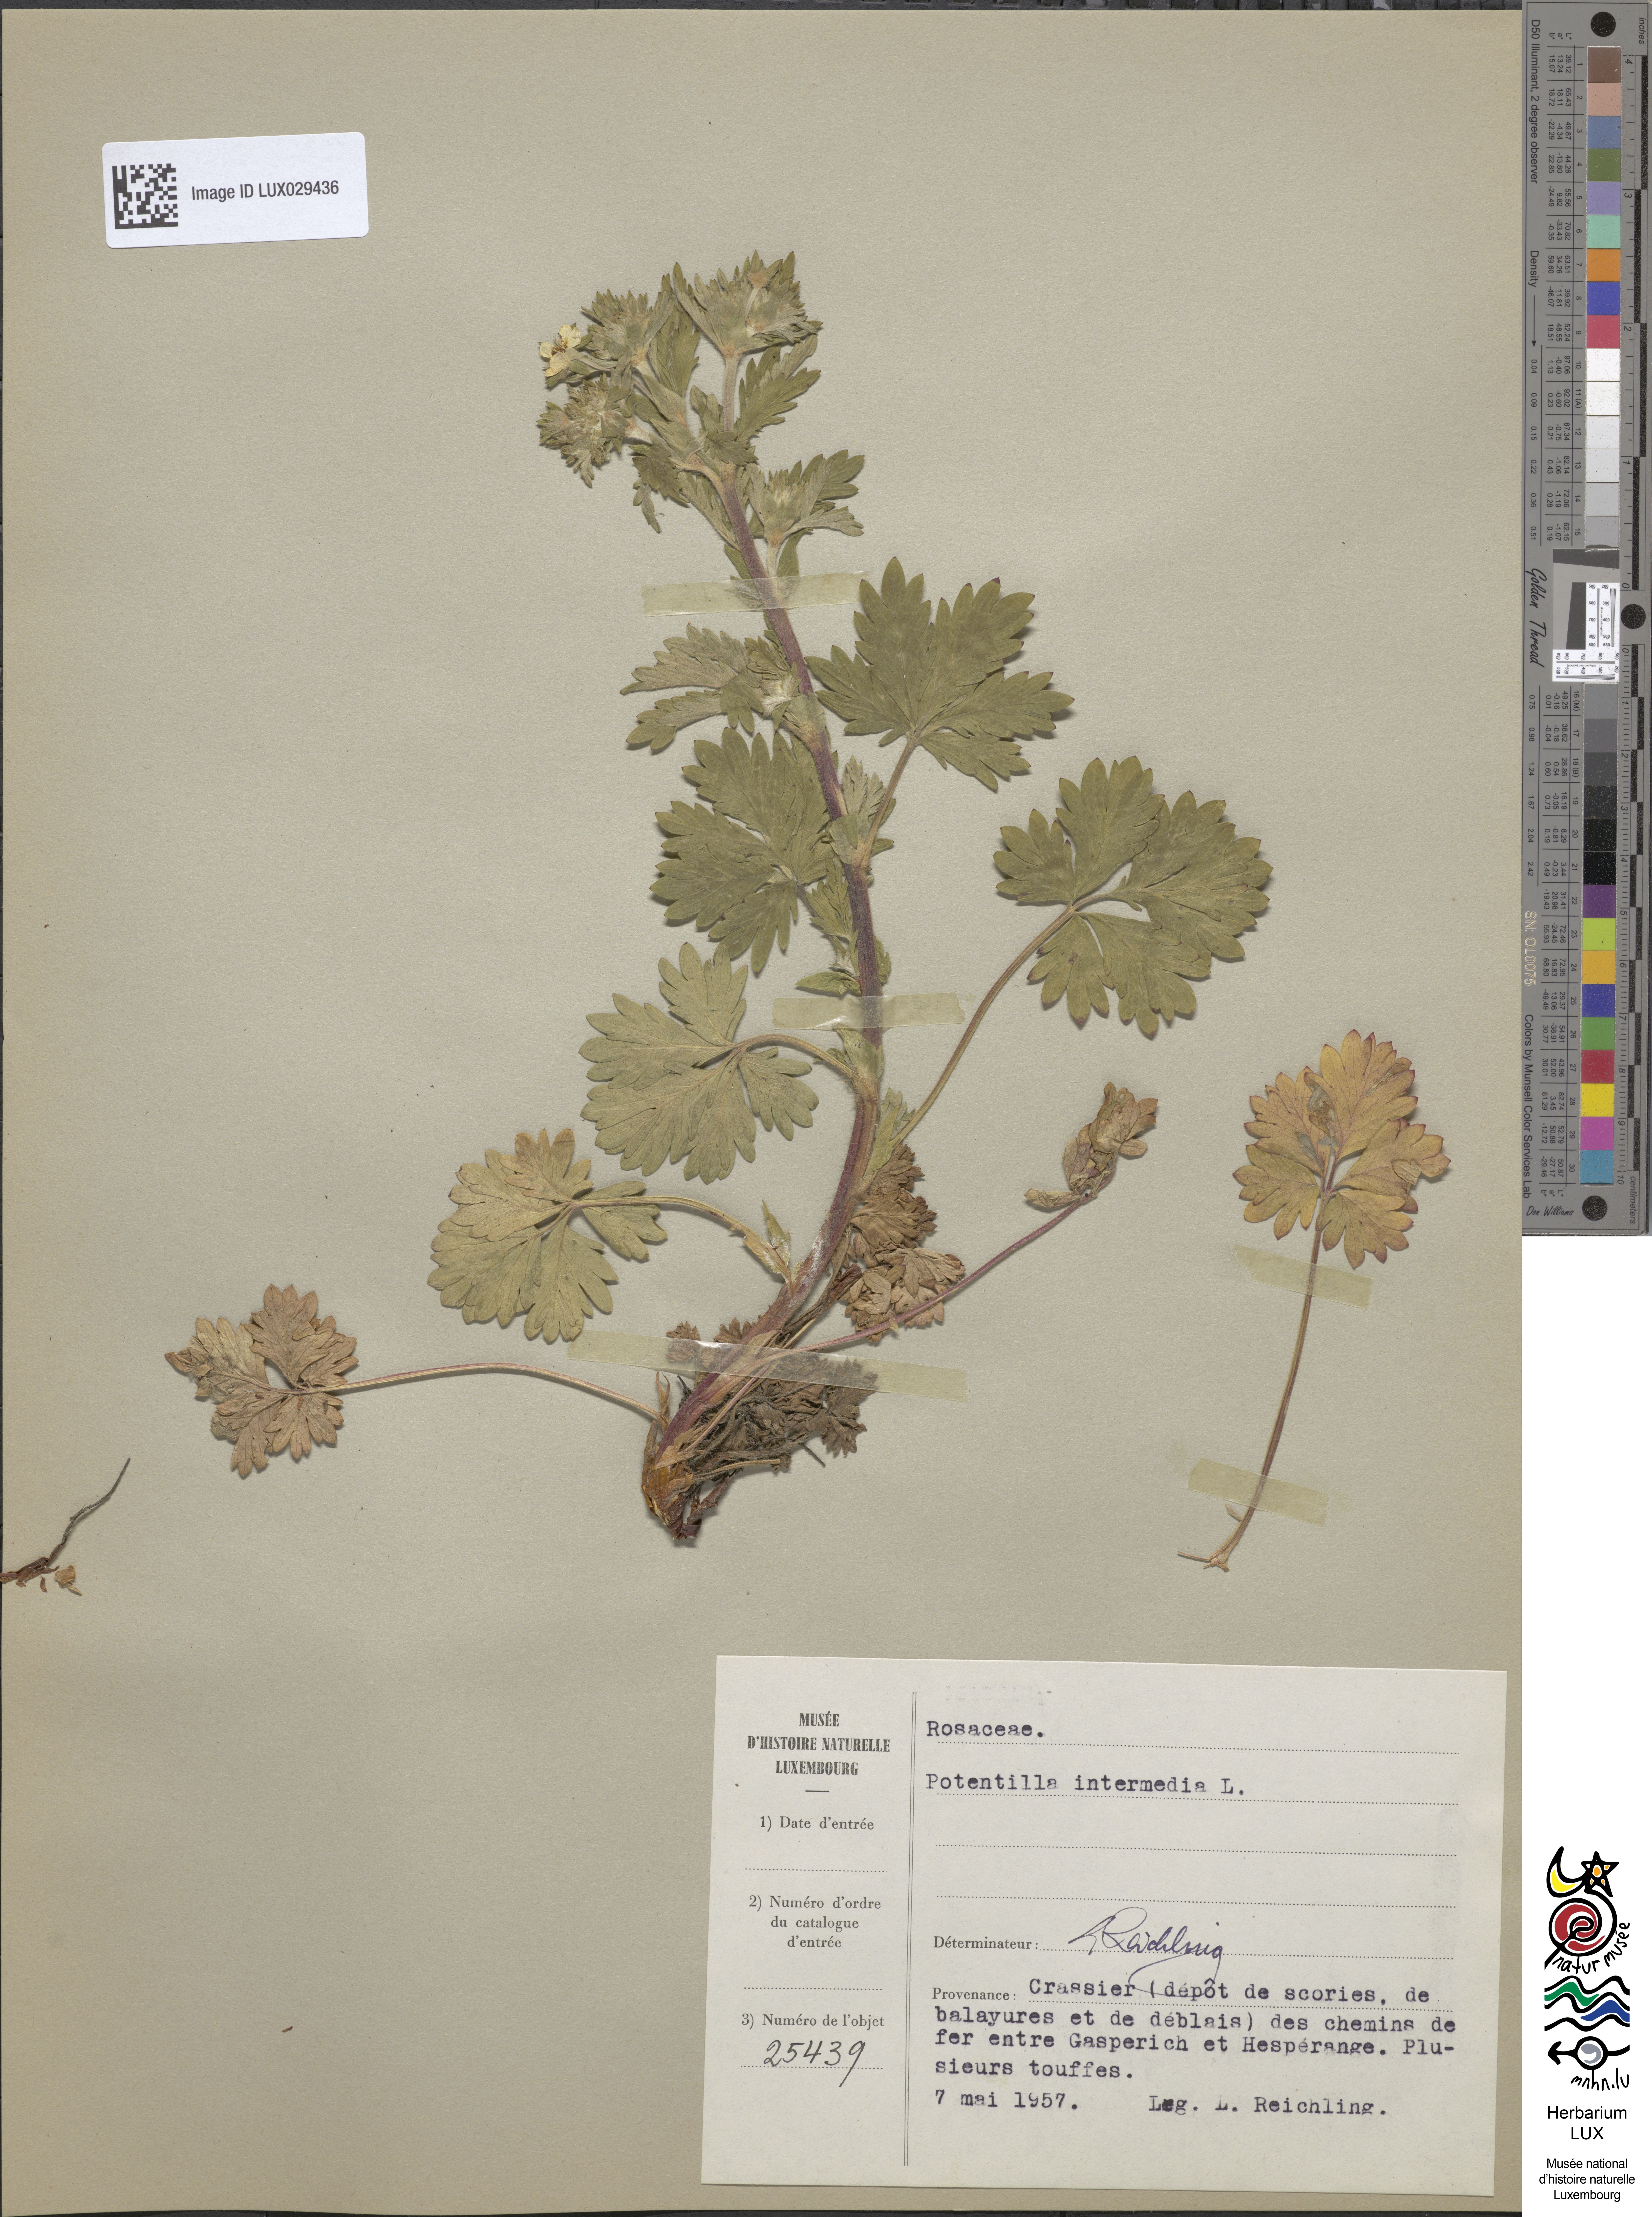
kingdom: Plantae
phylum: Tracheophyta
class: Magnoliopsida
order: Rosales
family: Rosaceae
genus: Potentilla
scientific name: Potentilla intermedia
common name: Downy cinquefoil
